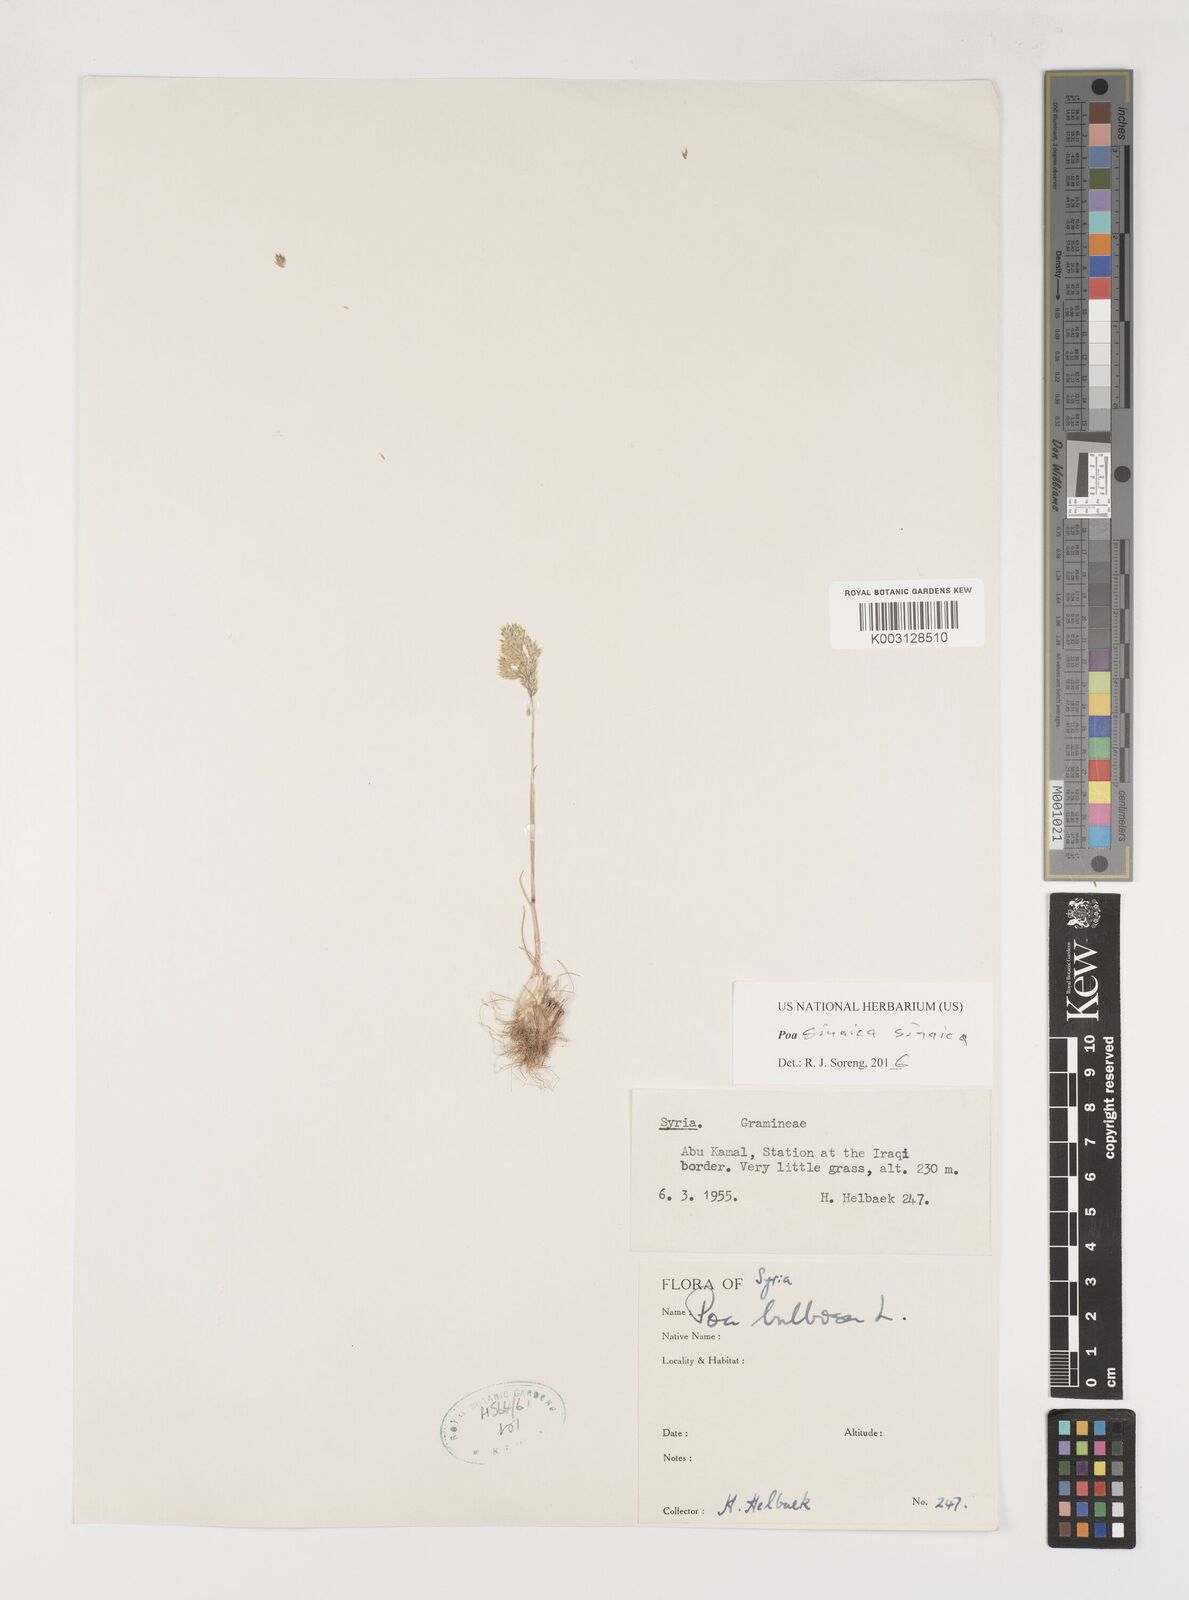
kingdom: Plantae
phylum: Tracheophyta
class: Liliopsida
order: Poales
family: Poaceae
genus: Poa
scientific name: Poa sinaica
